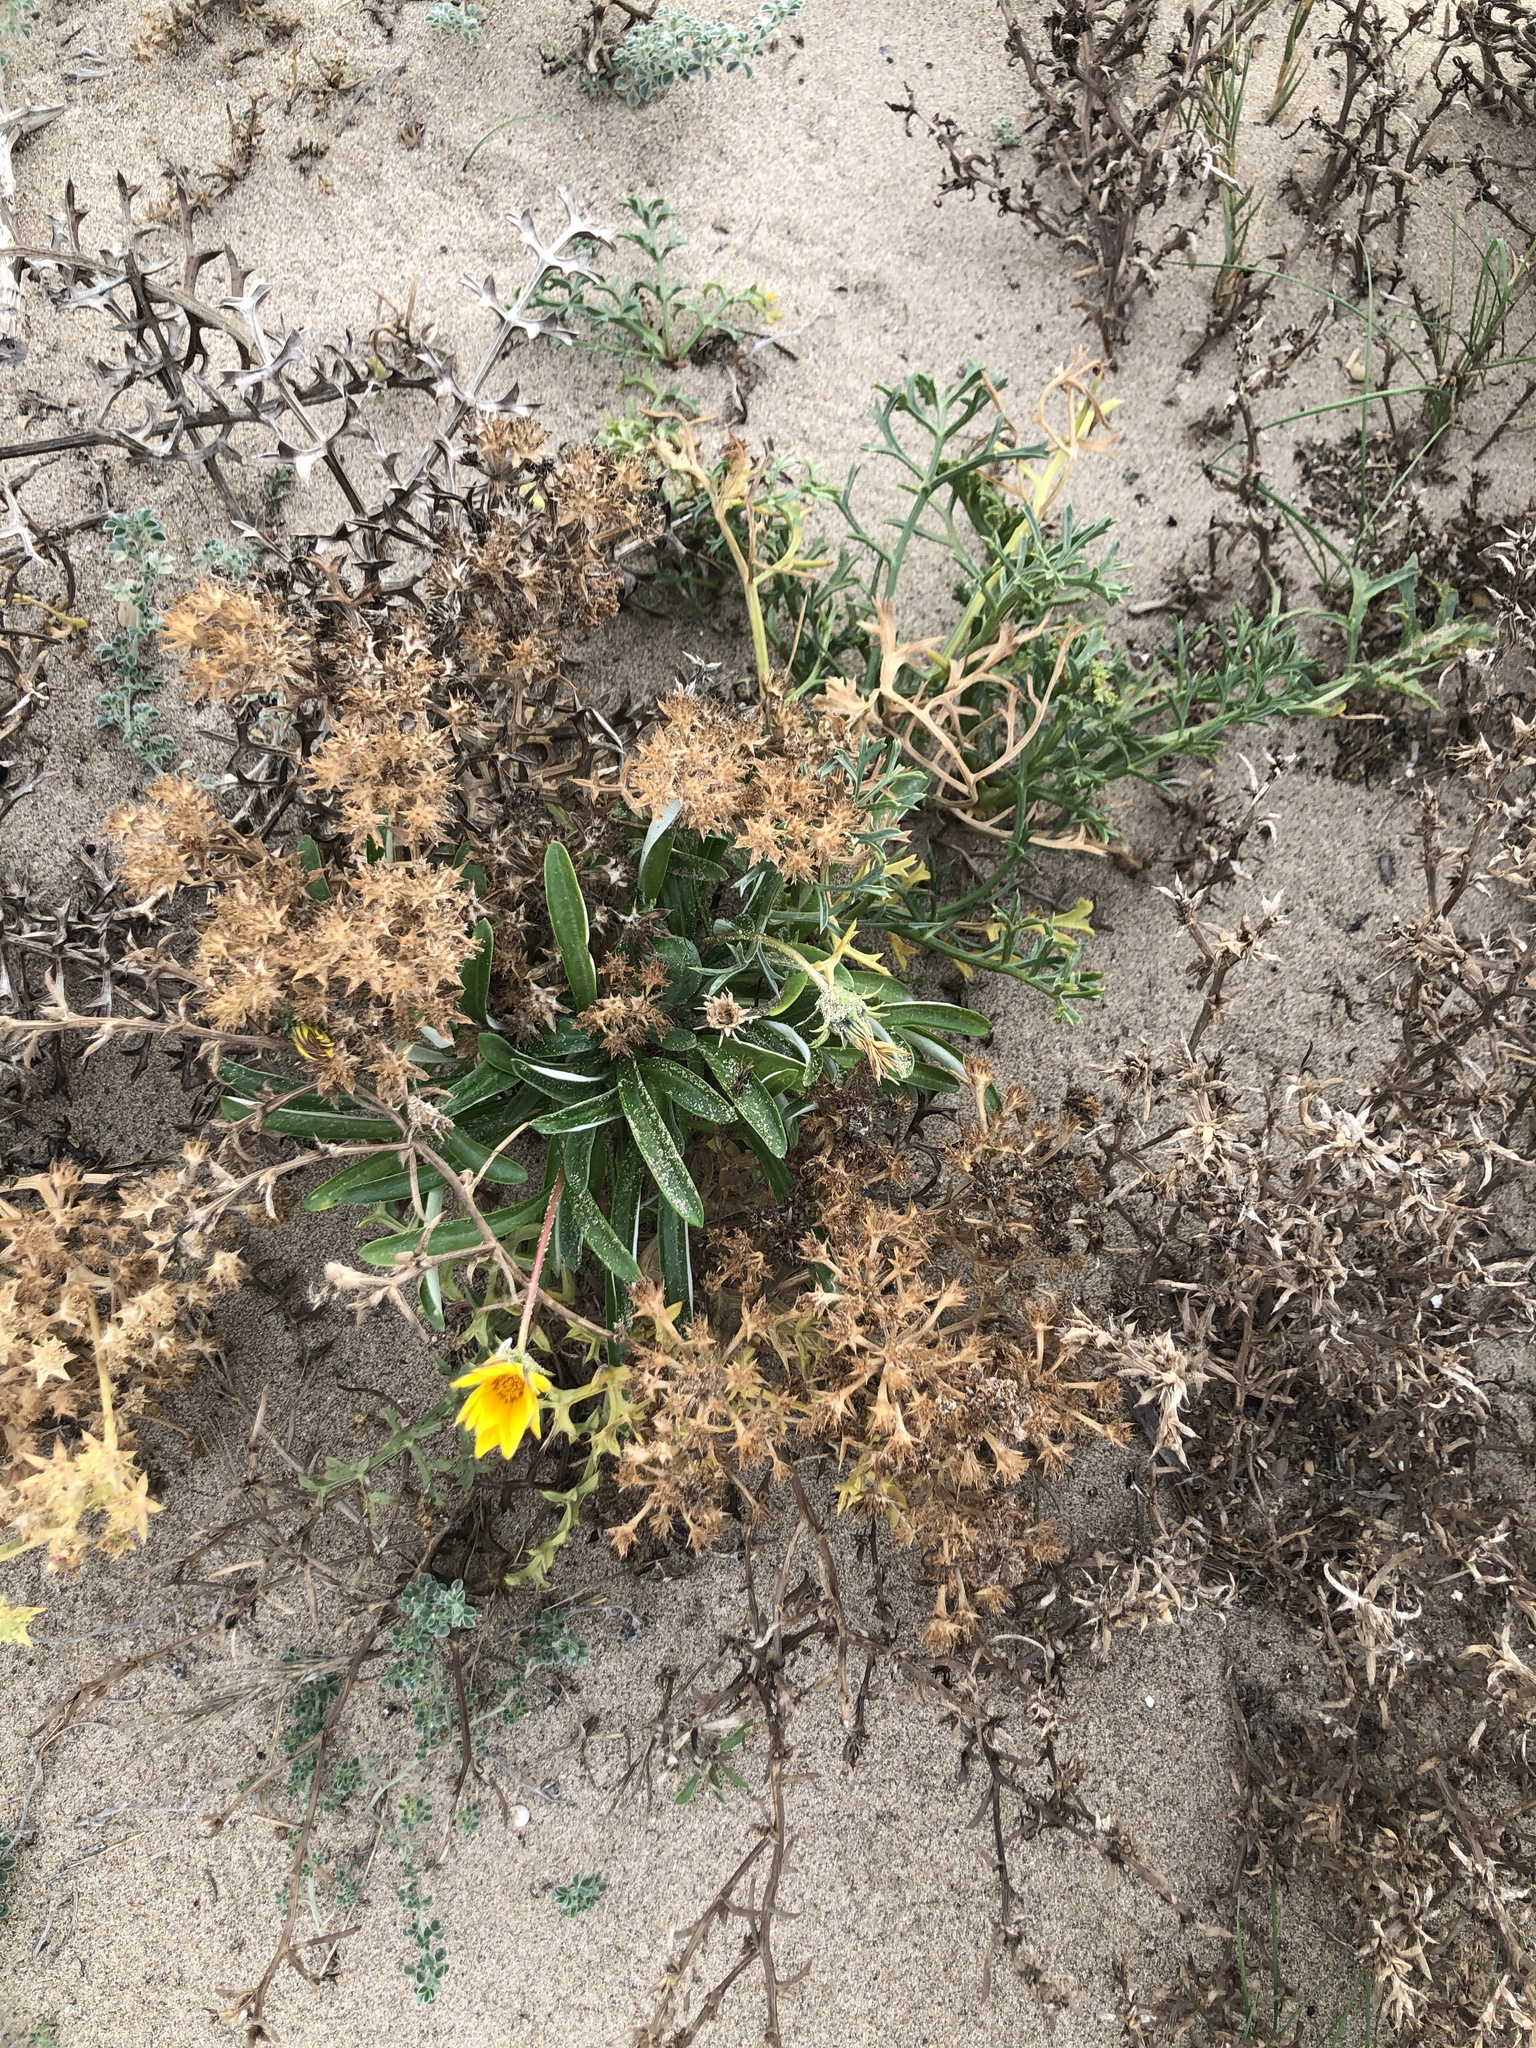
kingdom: Plantae
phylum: Tracheophyta
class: Magnoliopsida
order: Asterales
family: Asteraceae
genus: Gazania
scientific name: Gazania rigens
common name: Treasureflower
